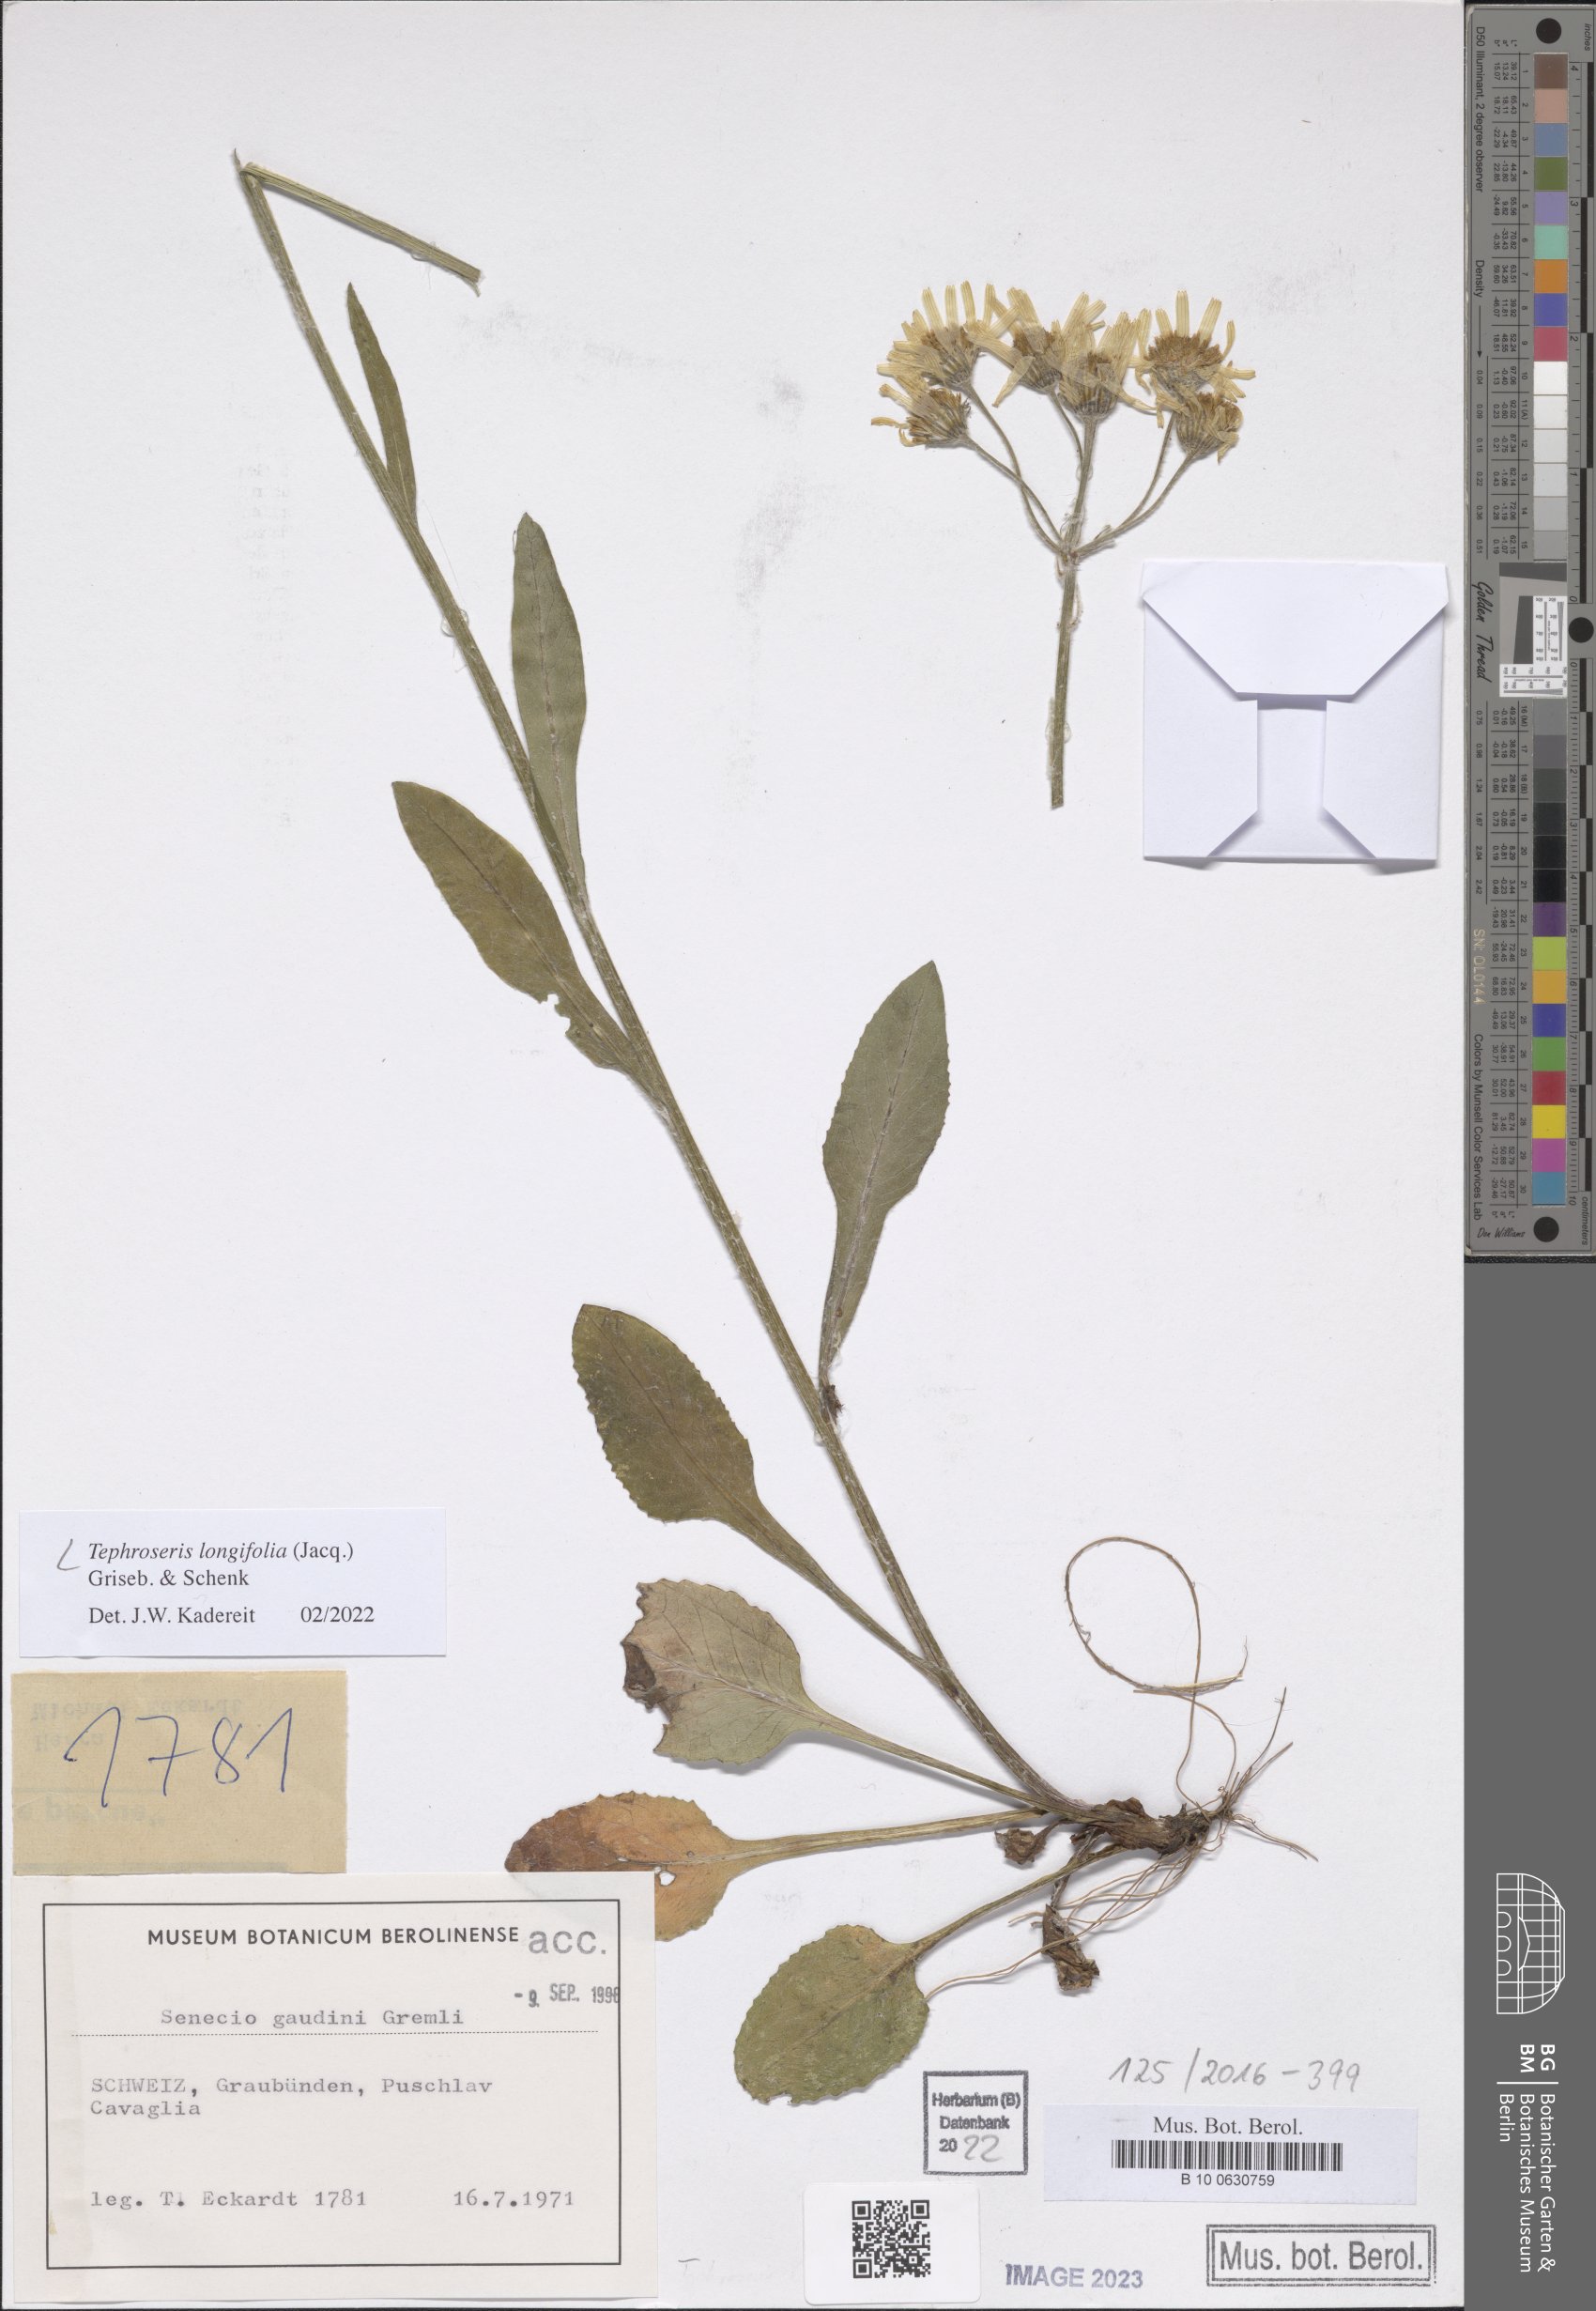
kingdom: Plantae
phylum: Tracheophyta
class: Magnoliopsida
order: Asterales
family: Asteraceae
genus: Tephroseris
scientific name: Tephroseris longifolia
